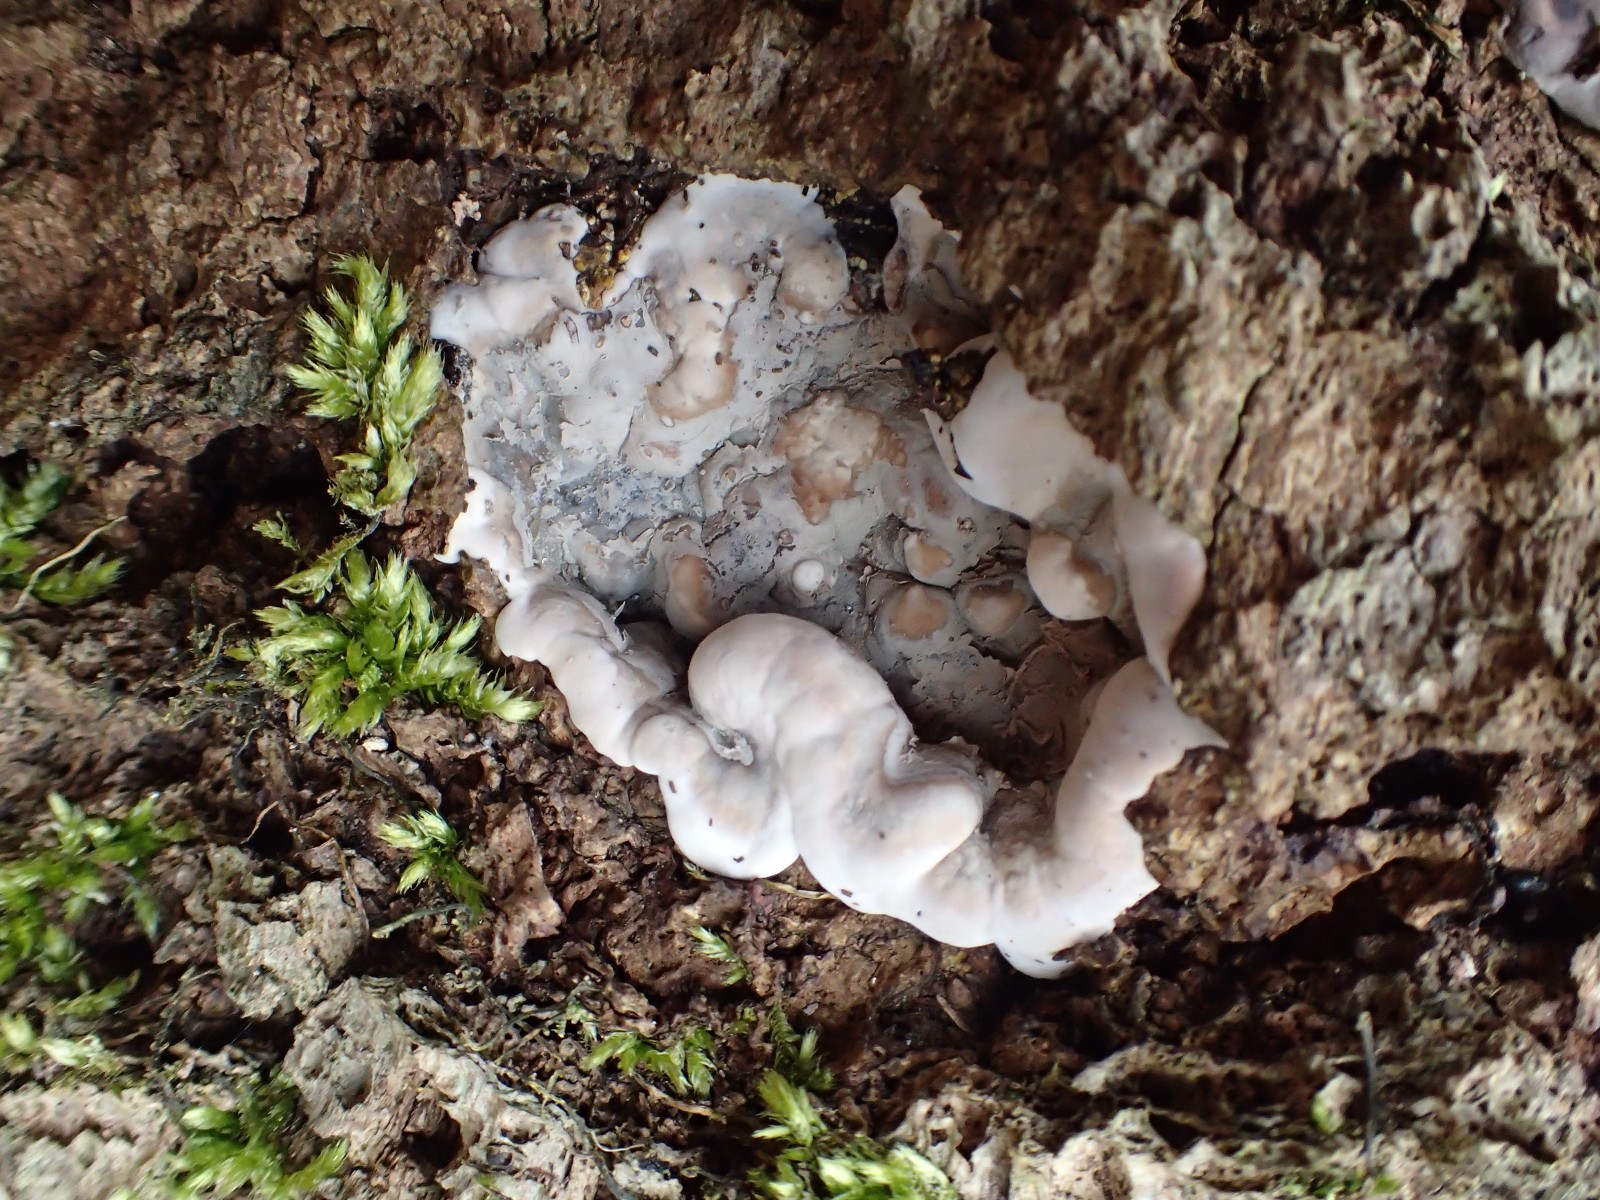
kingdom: Fungi
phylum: Ascomycota
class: Sordariomycetes
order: Xylariales
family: Xylariaceae
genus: Kretzschmaria
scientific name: Kretzschmaria deusta
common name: stor kulsvamp
